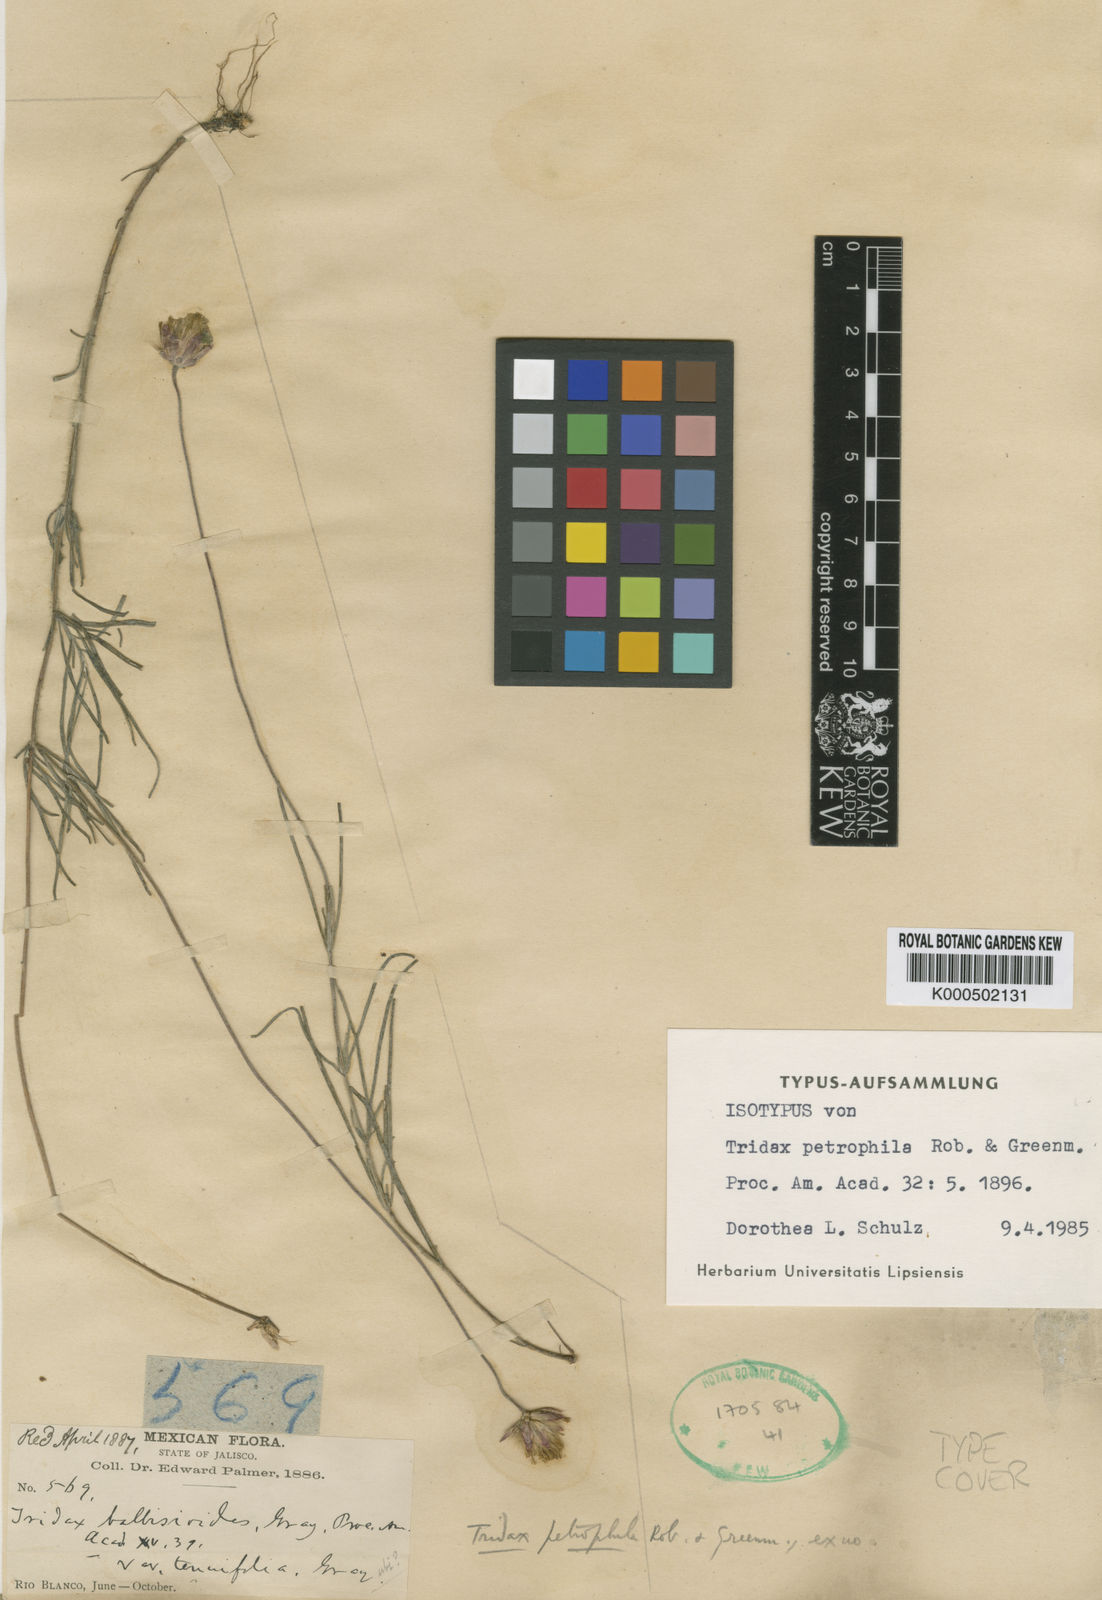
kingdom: Plantae
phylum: Tracheophyta
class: Magnoliopsida
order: Asterales
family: Asteraceae
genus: Tridax
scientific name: Tridax petrophila
